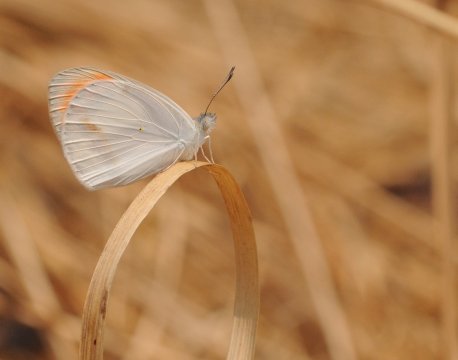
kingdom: Animalia
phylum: Arthropoda
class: Insecta
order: Lepidoptera
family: Pieridae
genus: Colotis
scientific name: Colotis euippe
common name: Round-winged Orange Tip
